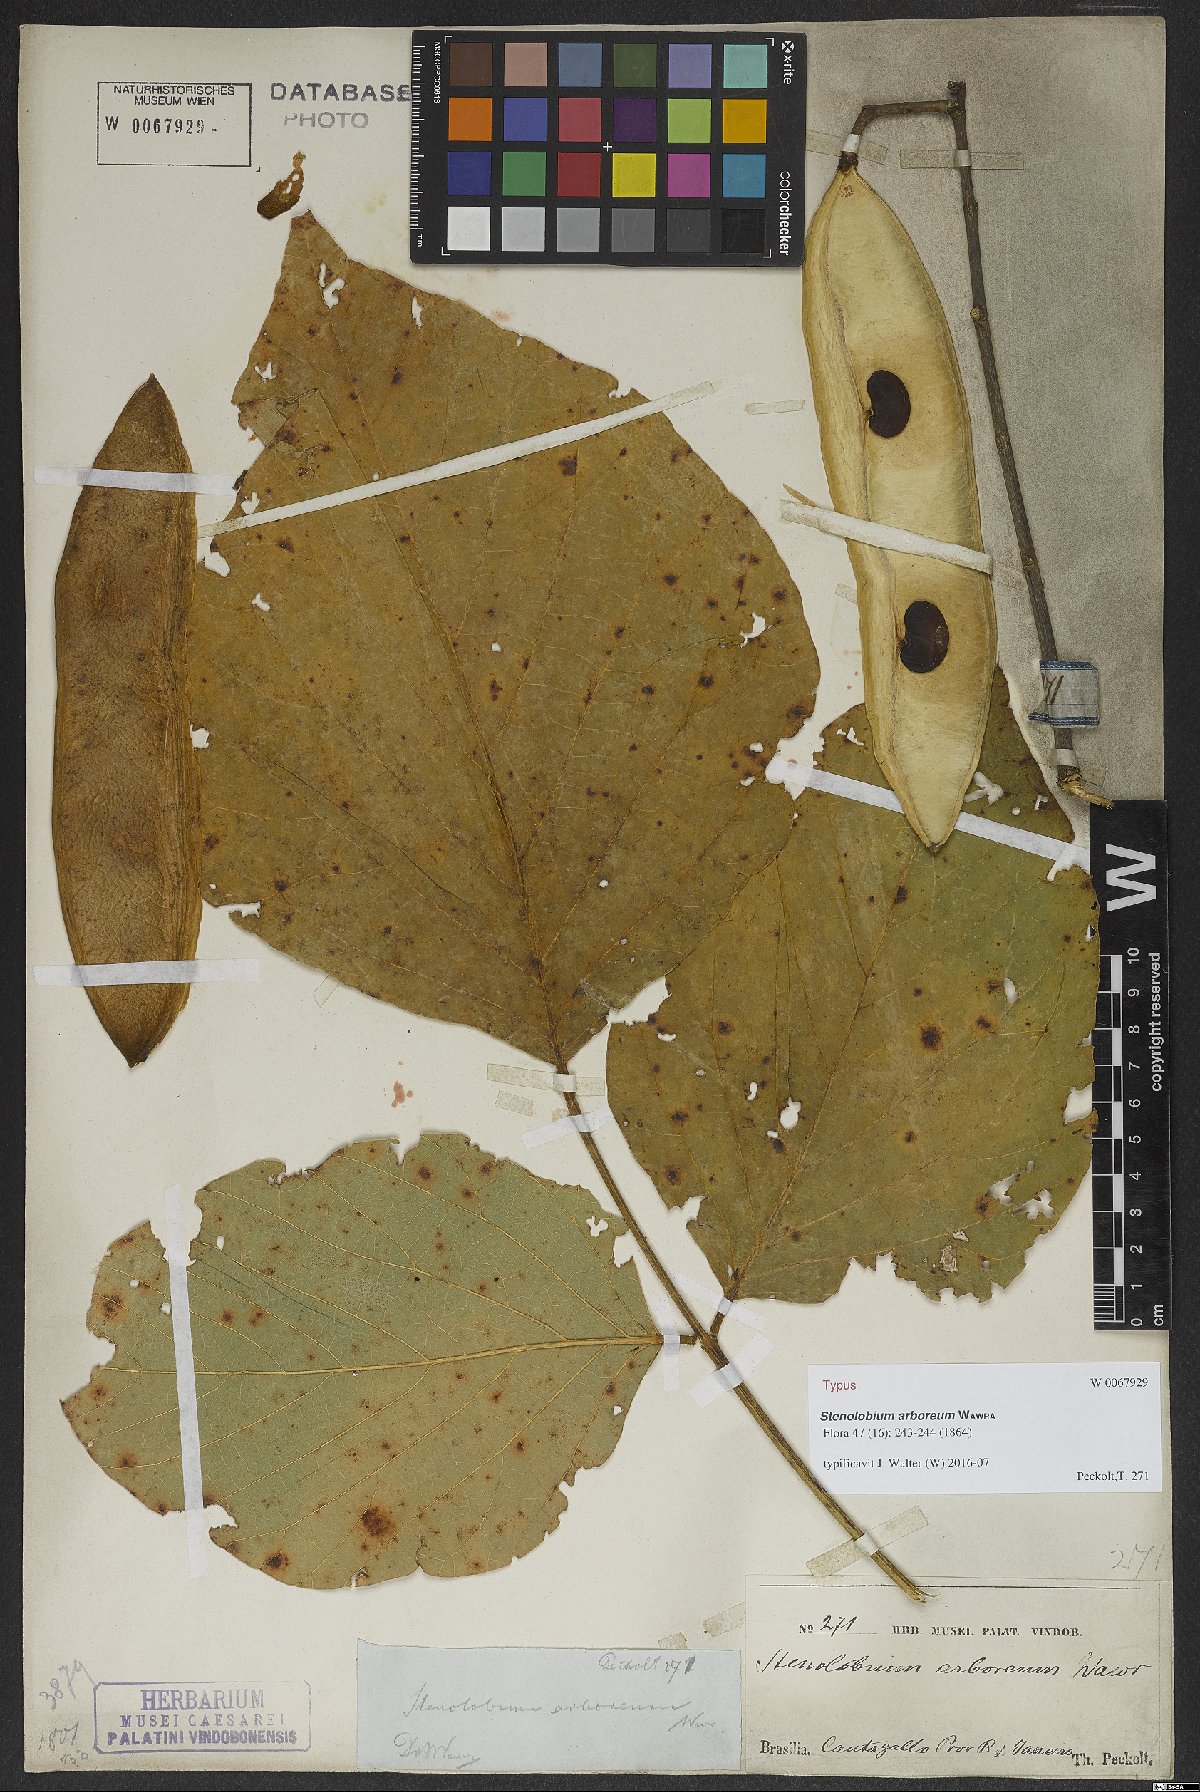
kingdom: Plantae
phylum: Tracheophyta
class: Magnoliopsida
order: Fabales
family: Fabaceae
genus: Calopogonium
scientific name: Calopogonium Stenolobium arboreum
